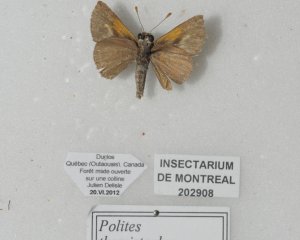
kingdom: Animalia
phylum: Arthropoda
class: Insecta
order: Lepidoptera
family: Hesperiidae
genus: Polites
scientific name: Polites themistocles
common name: Tawny-edged Skipper
